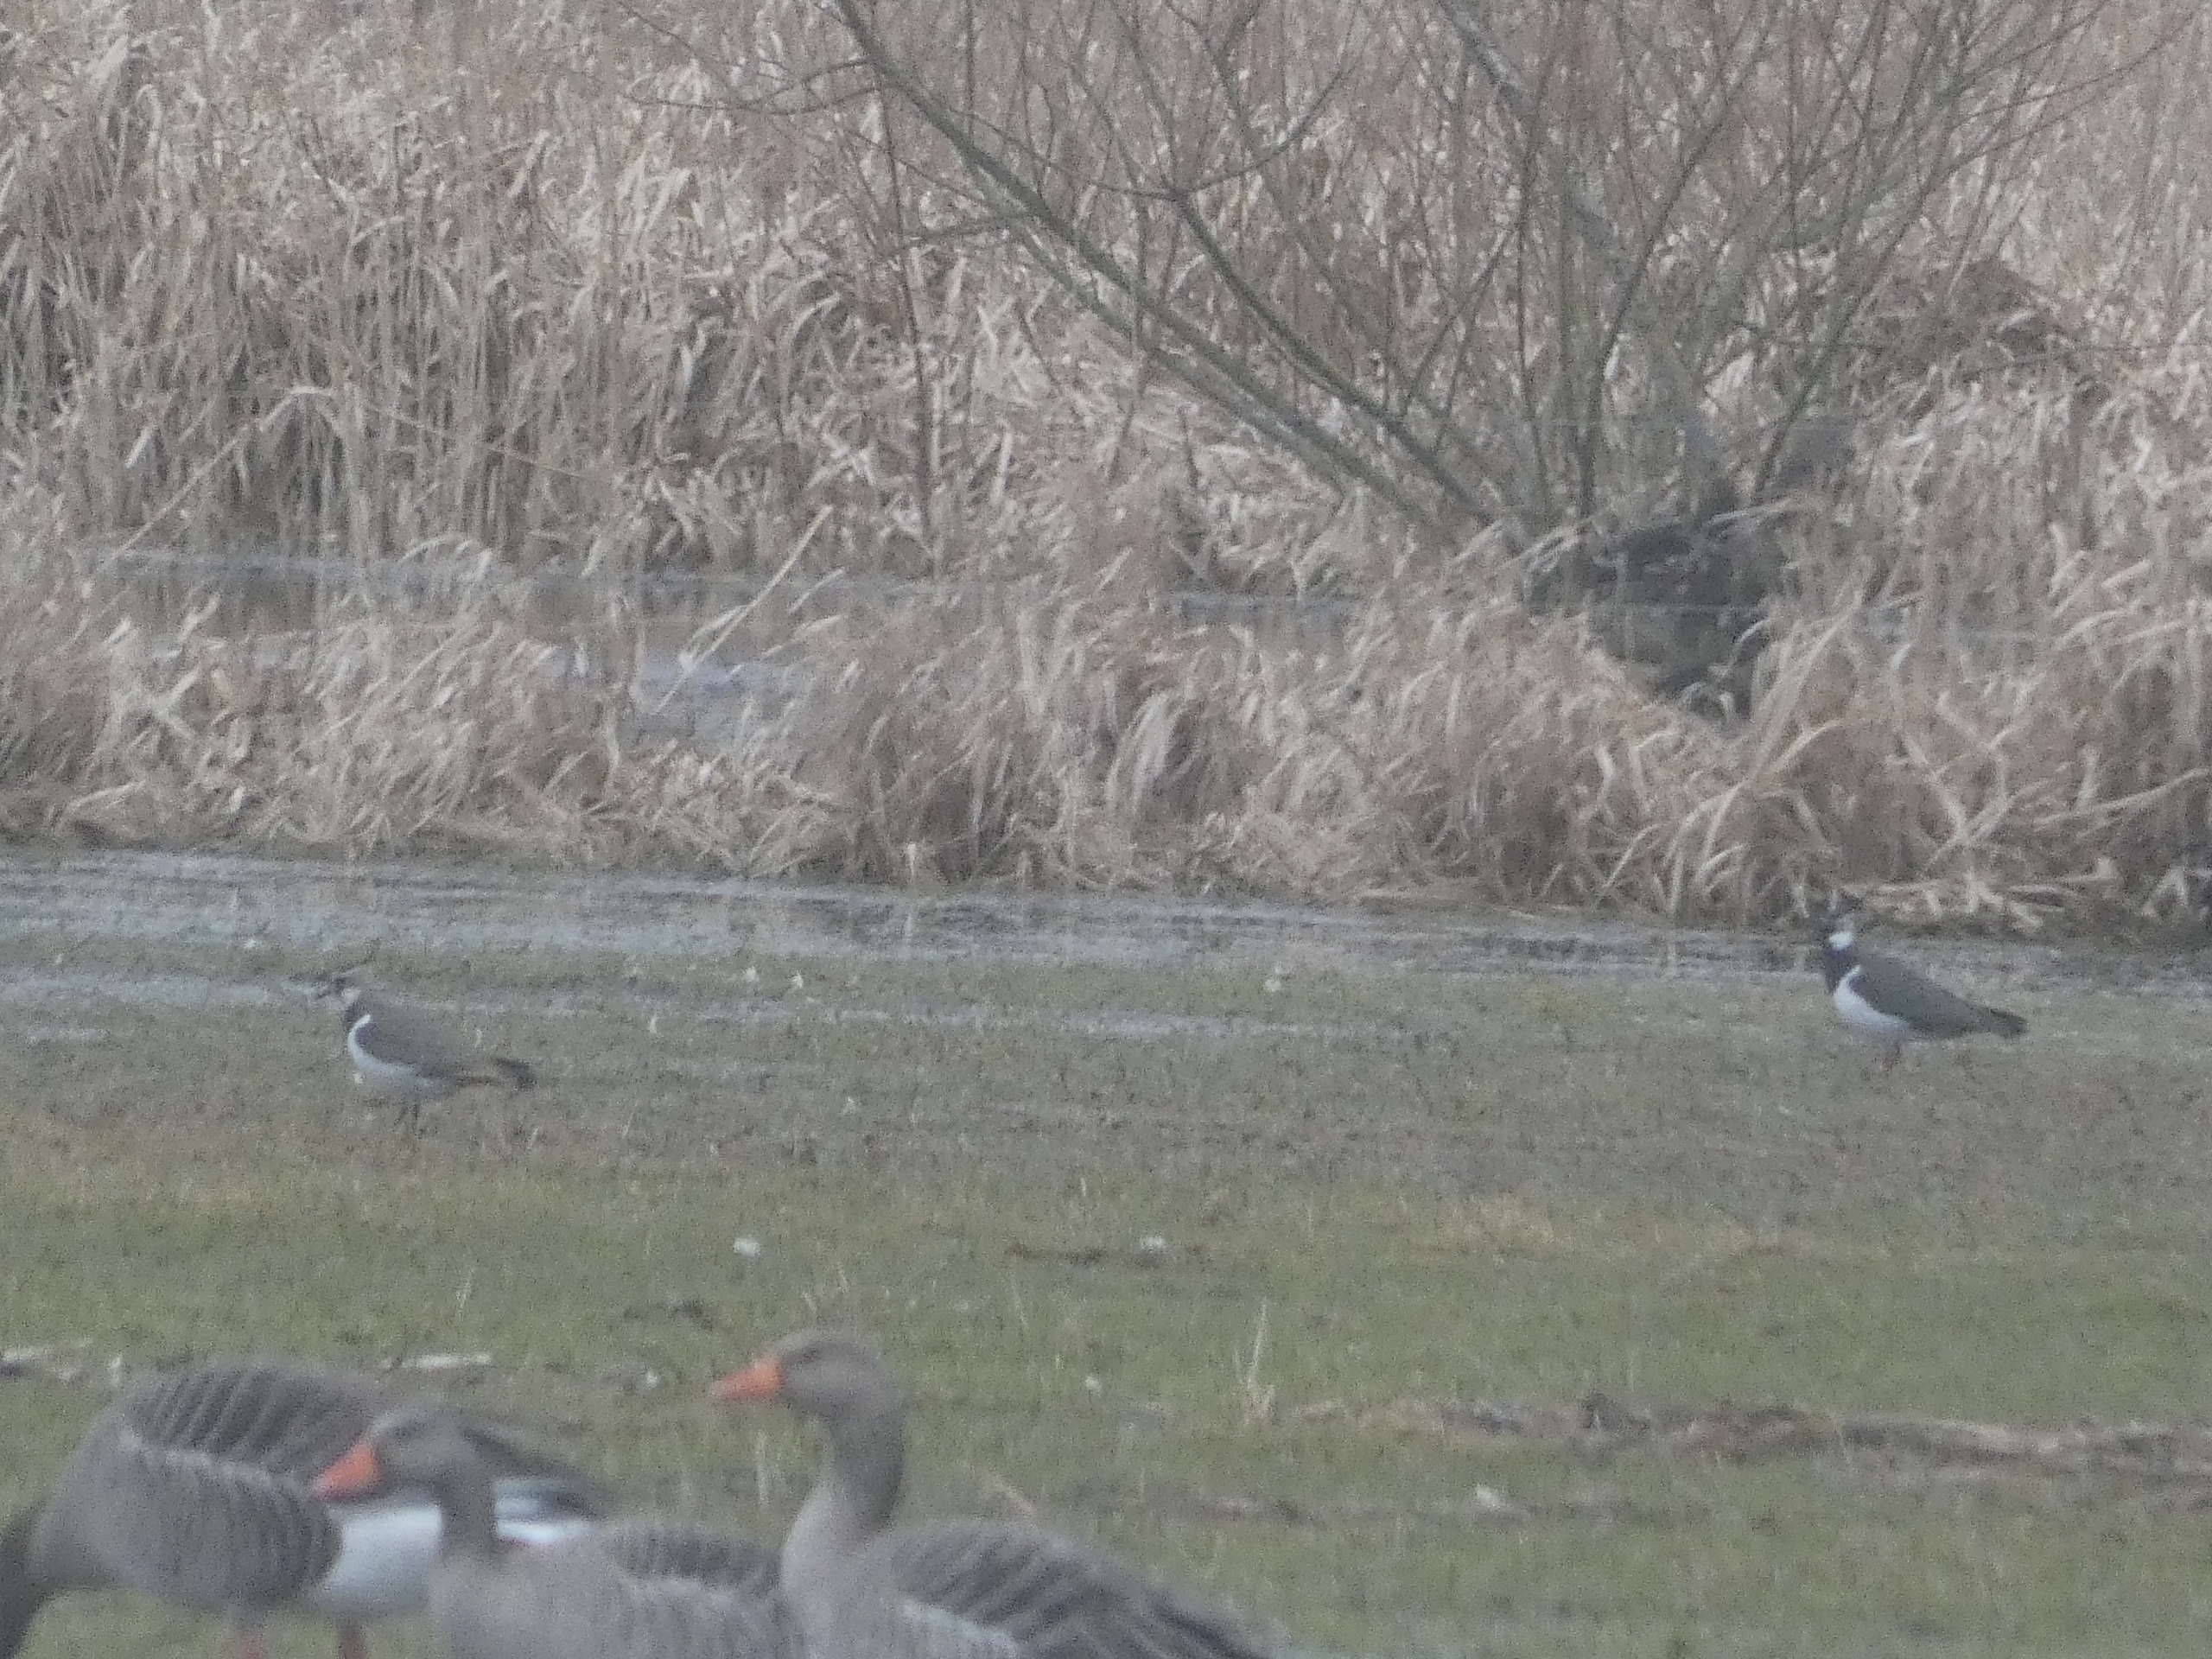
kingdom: Animalia
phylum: Chordata
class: Aves
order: Charadriiformes
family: Charadriidae
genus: Vanellus
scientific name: Vanellus vanellus
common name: Vibe
